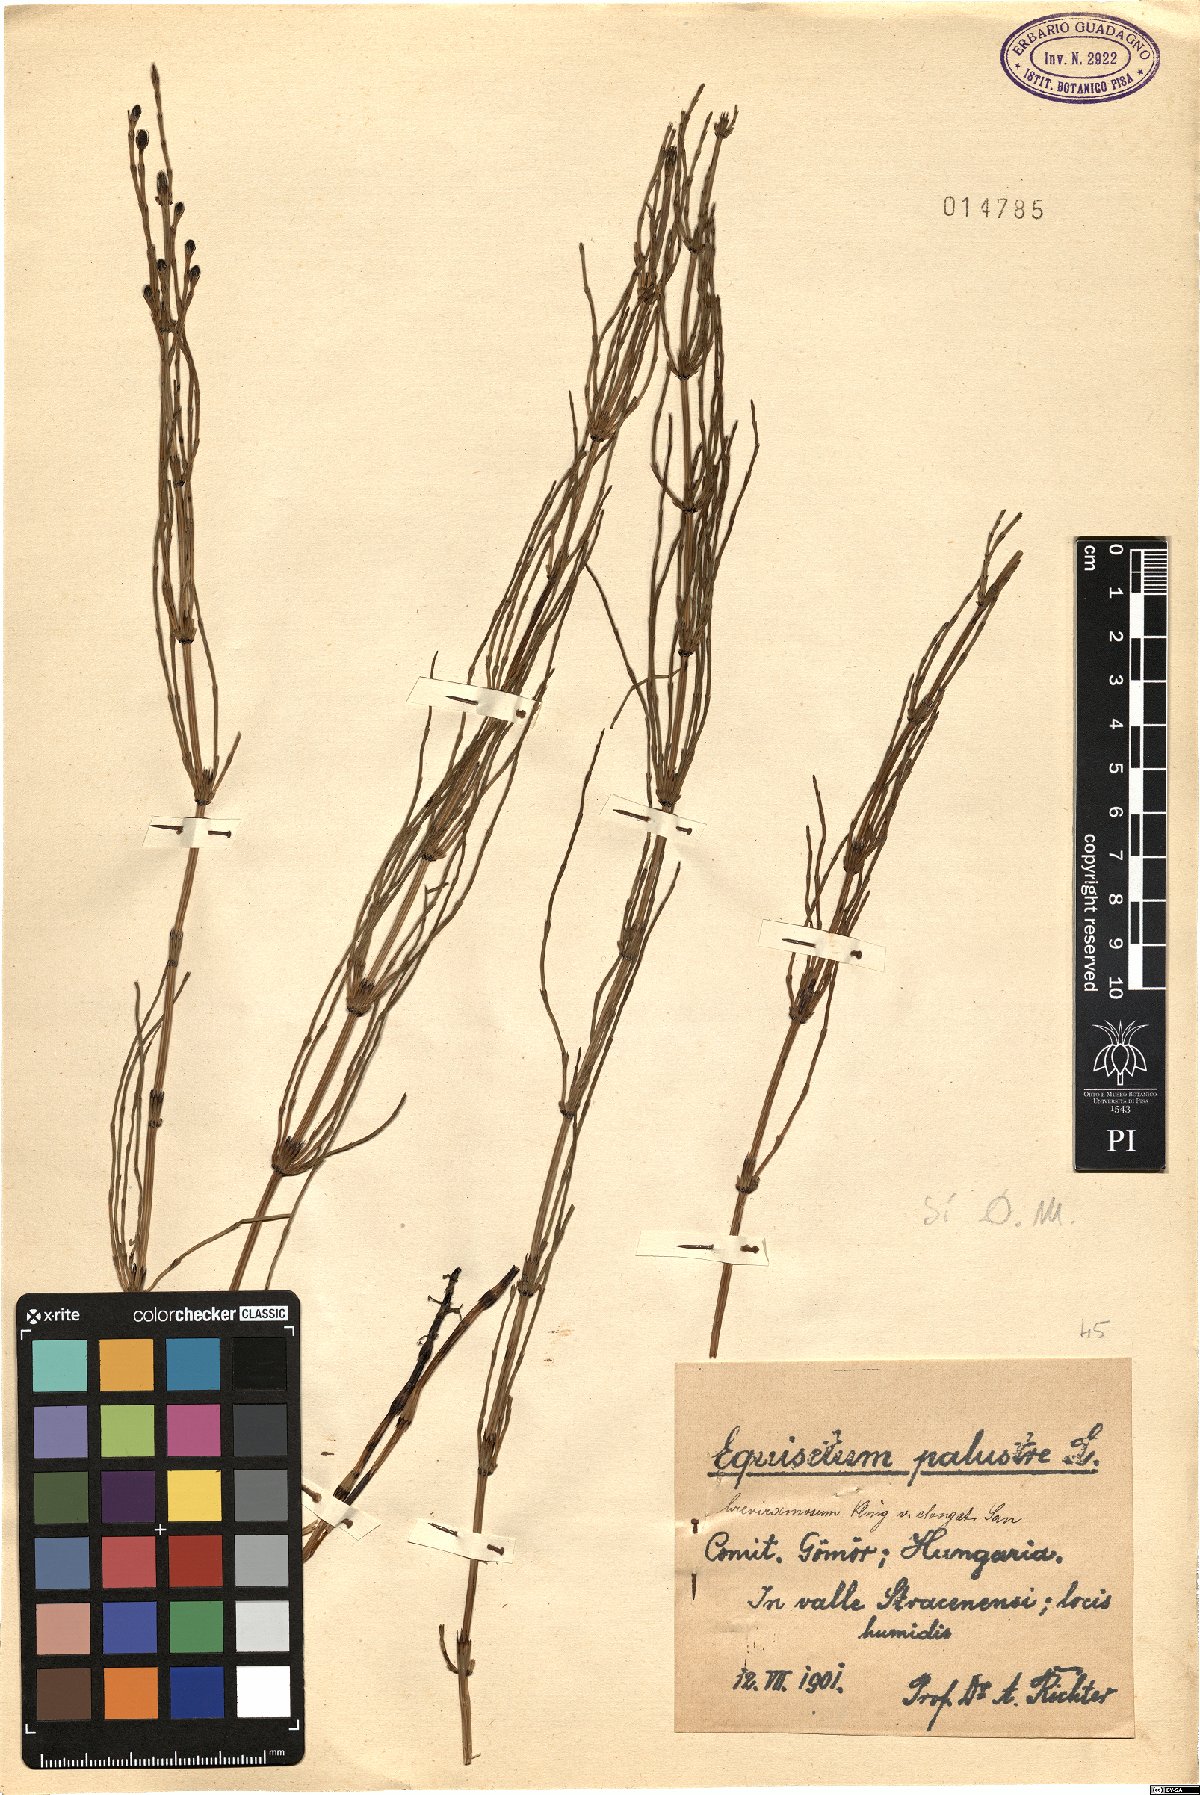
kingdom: Plantae
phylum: Tracheophyta
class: Polypodiopsida
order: Equisetales
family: Equisetaceae
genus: Equisetum
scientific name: Equisetum palustre
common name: Marsh horsetail
